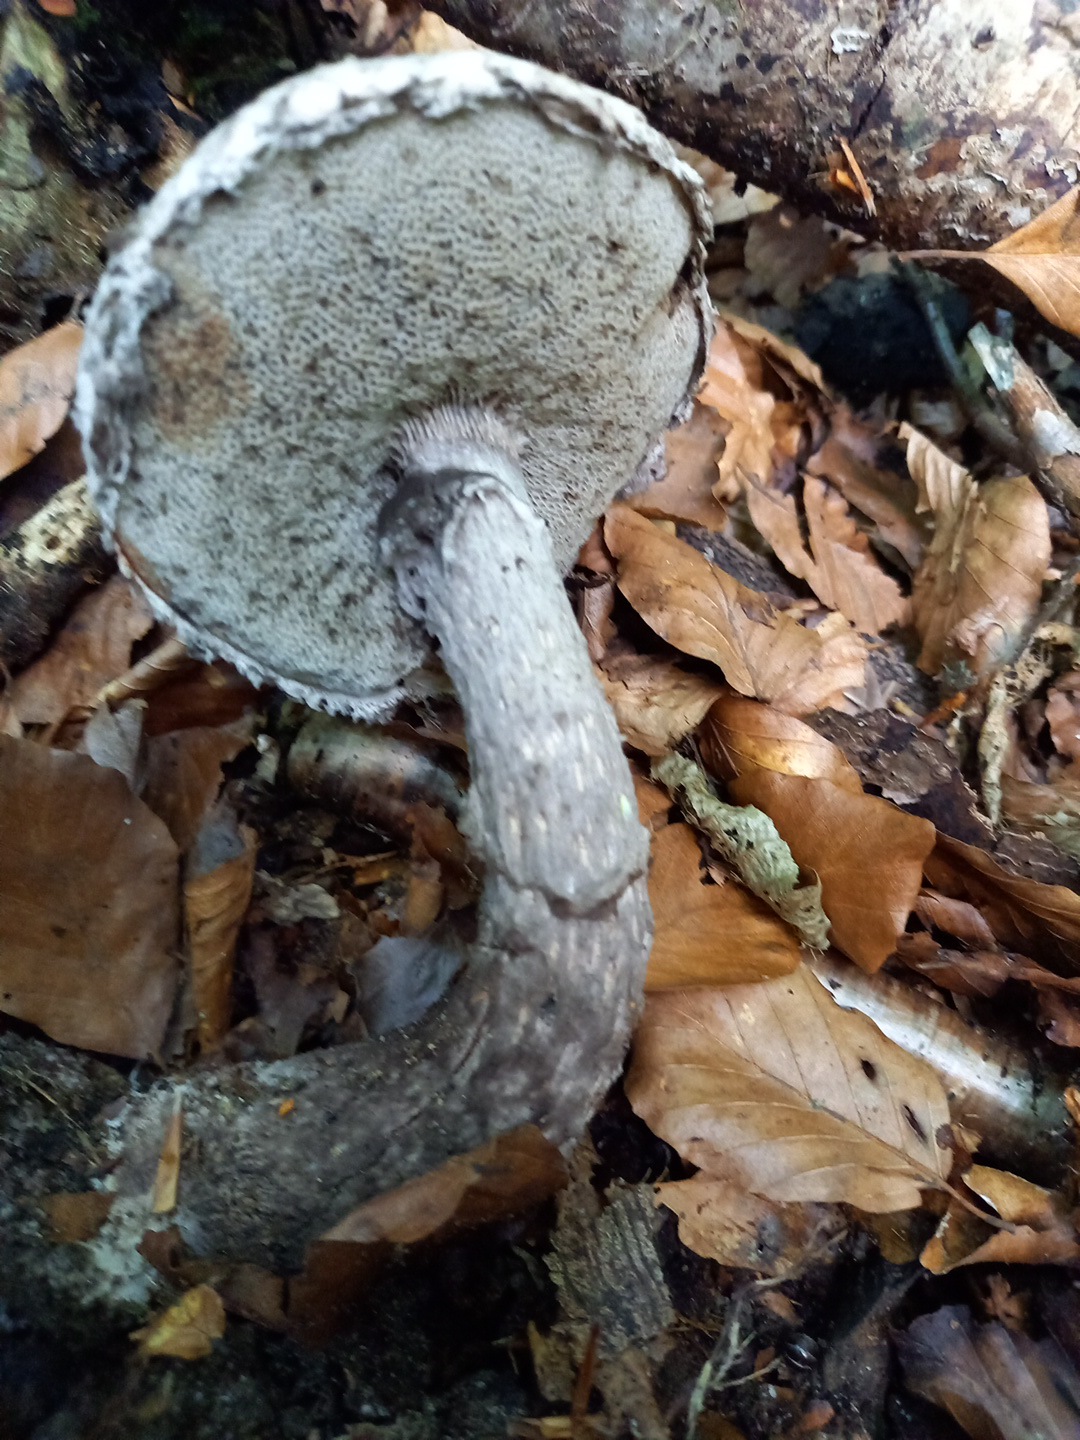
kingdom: Fungi
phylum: Basidiomycota
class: Agaricomycetes
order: Boletales
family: Boletaceae
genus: Strobilomyces
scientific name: Strobilomyces strobilaceus
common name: koglerørhat
